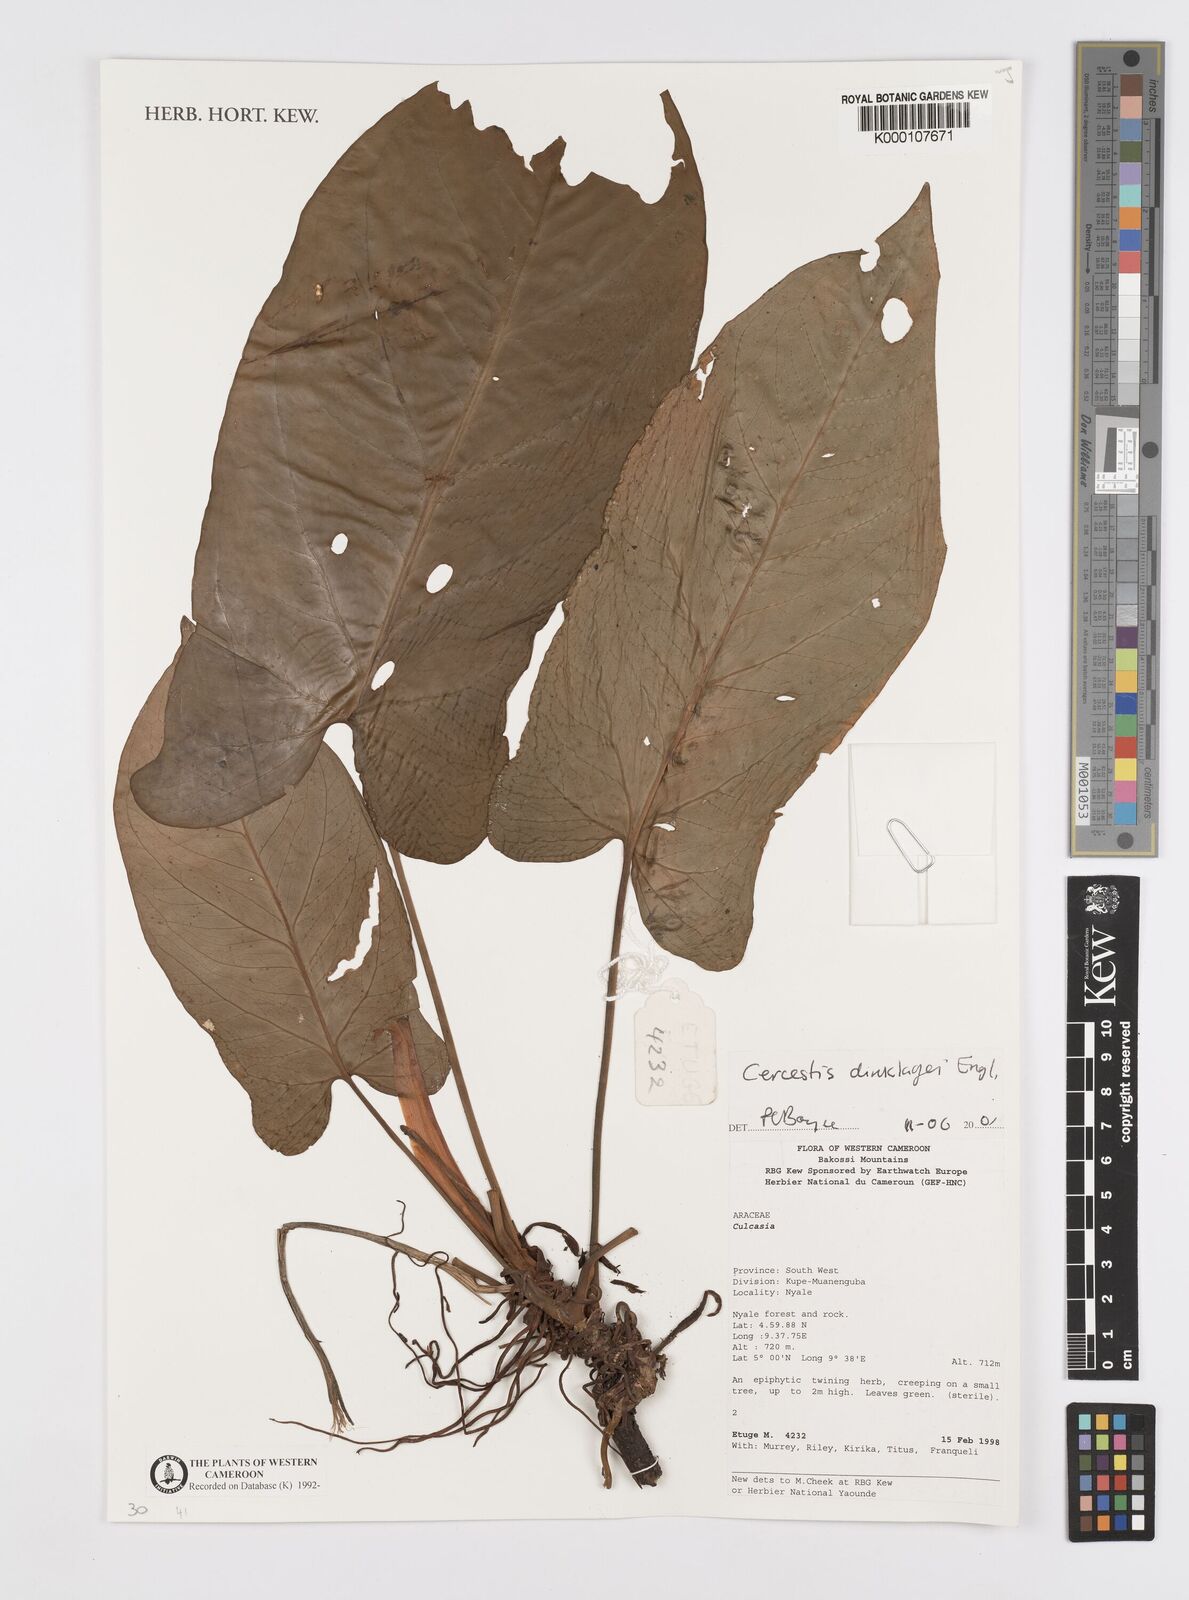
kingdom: Plantae
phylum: Tracheophyta
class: Liliopsida
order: Alismatales
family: Araceae
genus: Cercestis
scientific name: Cercestis dinklagei
